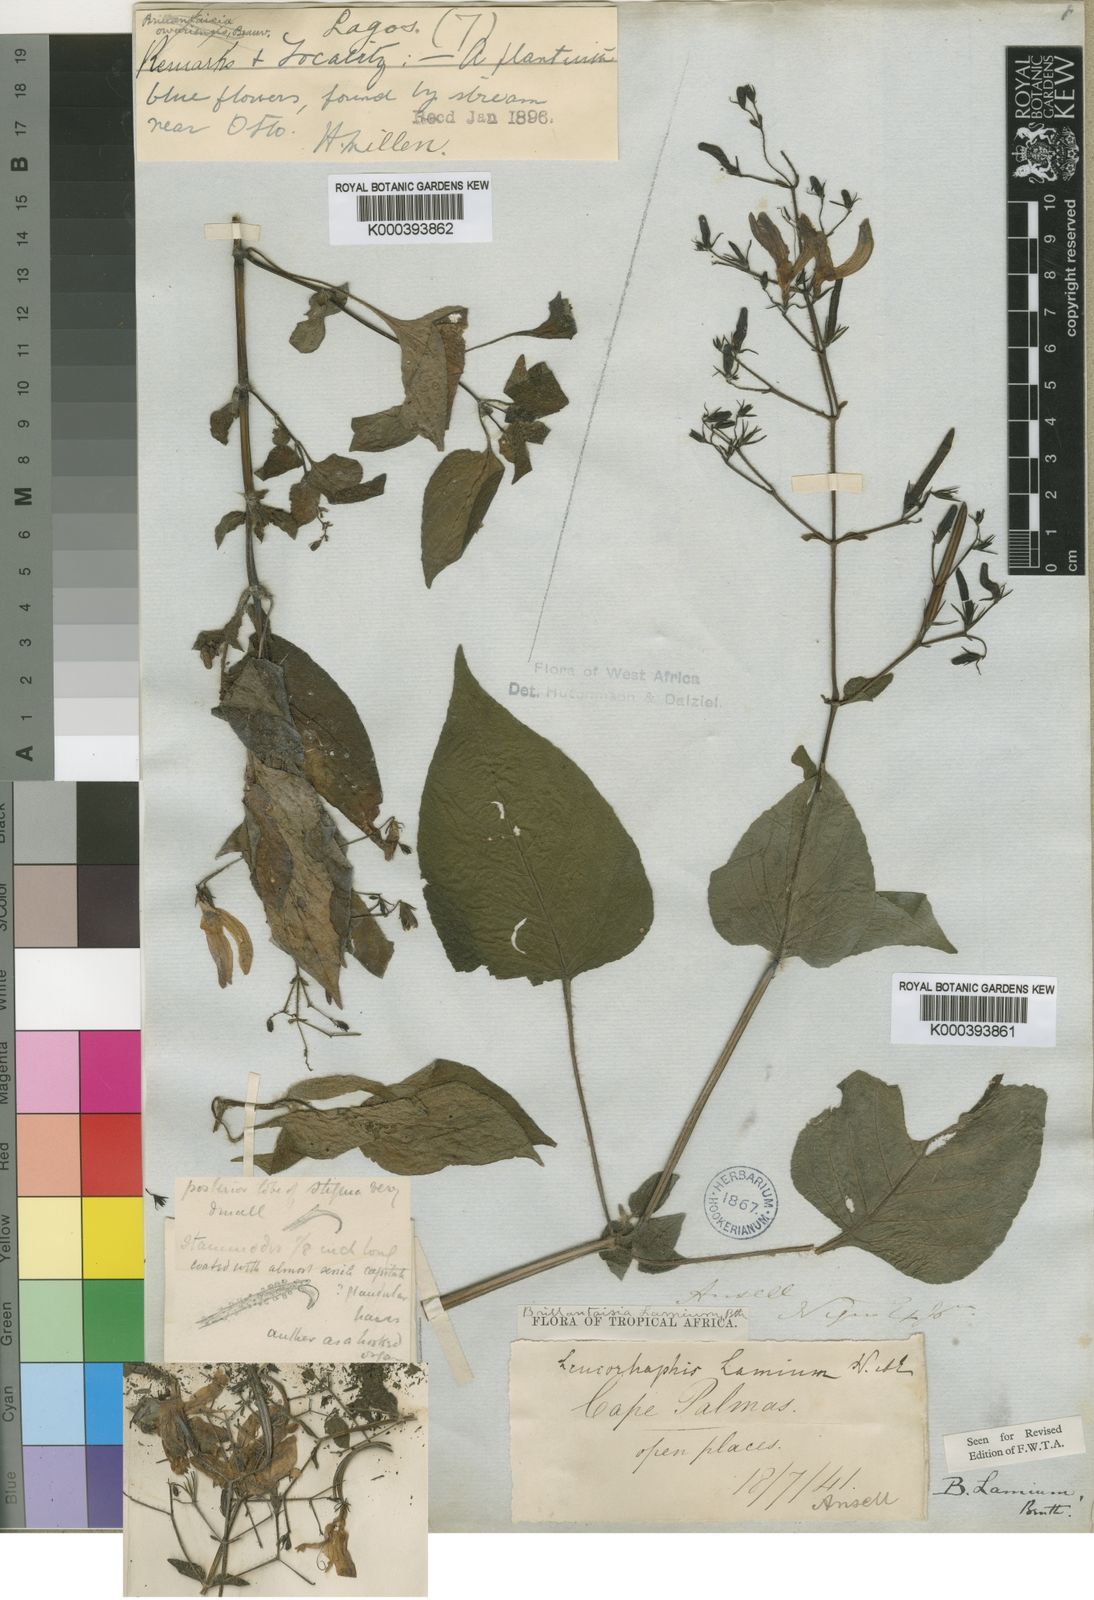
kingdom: Plantae
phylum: Tracheophyta
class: Magnoliopsida
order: Lamiales
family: Acanthaceae
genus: Brillantaisia
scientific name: Brillantaisia lamium
